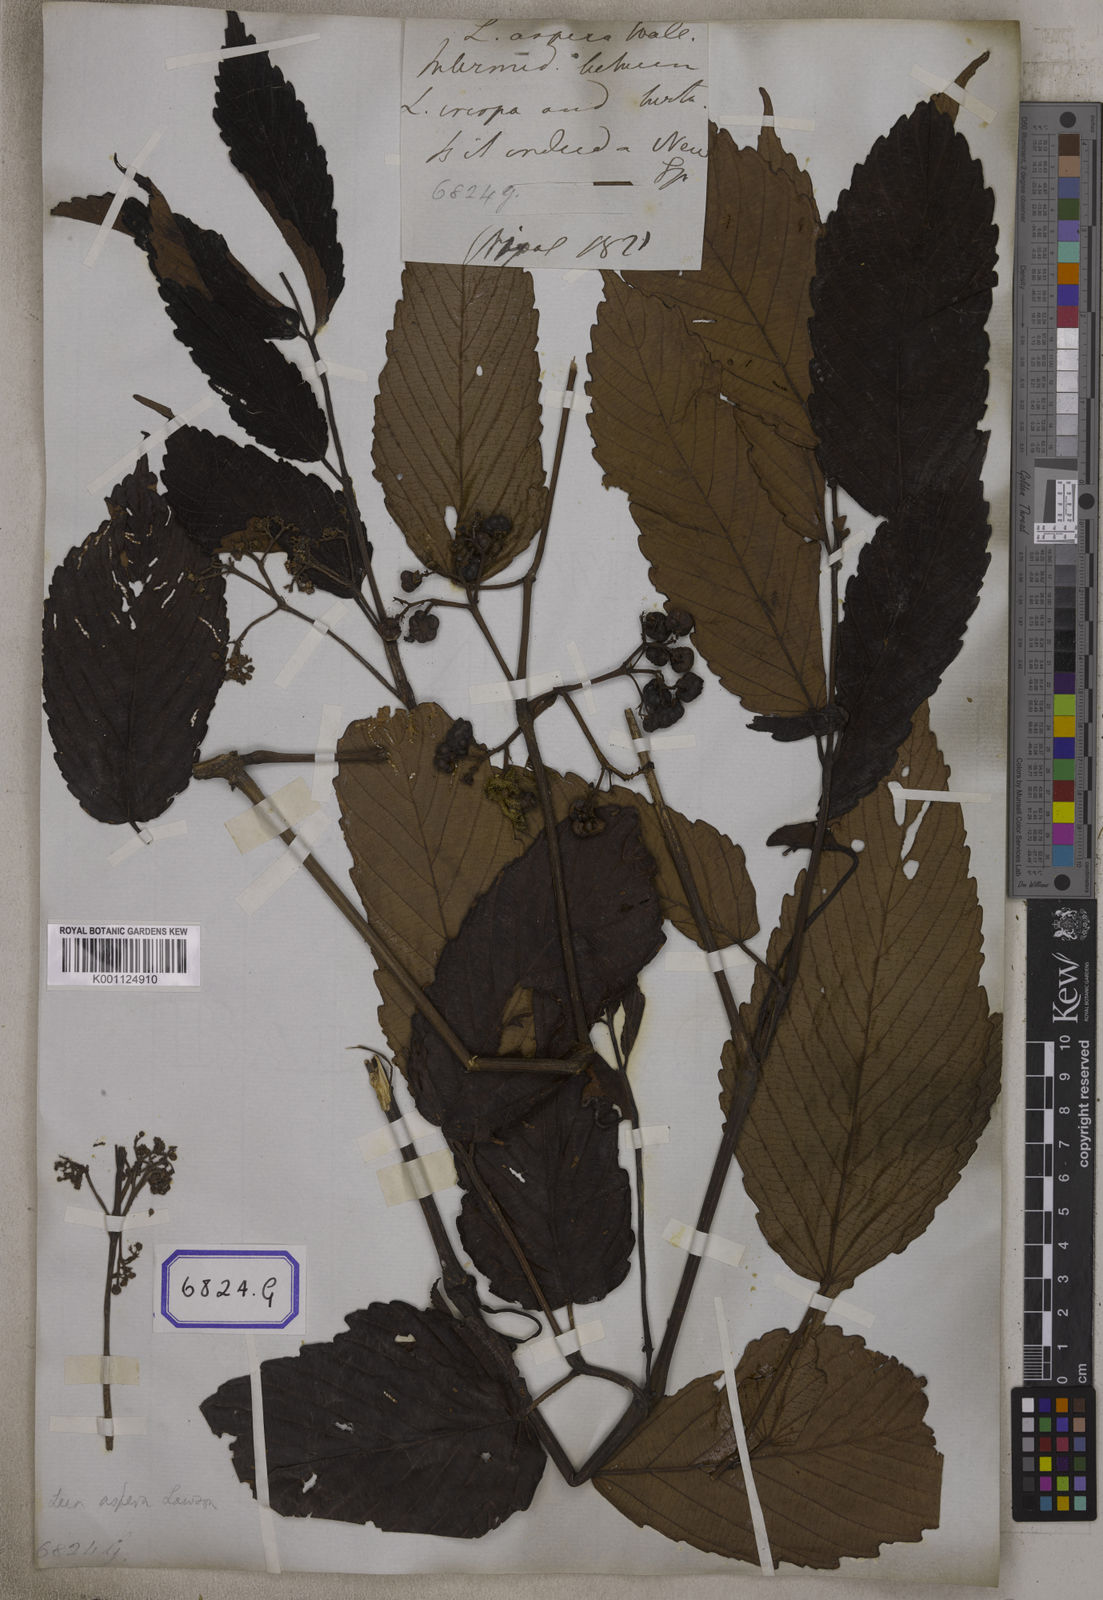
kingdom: Plantae
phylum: Tracheophyta
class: Magnoliopsida
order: Vitales
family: Vitaceae
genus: Leea
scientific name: Leea
